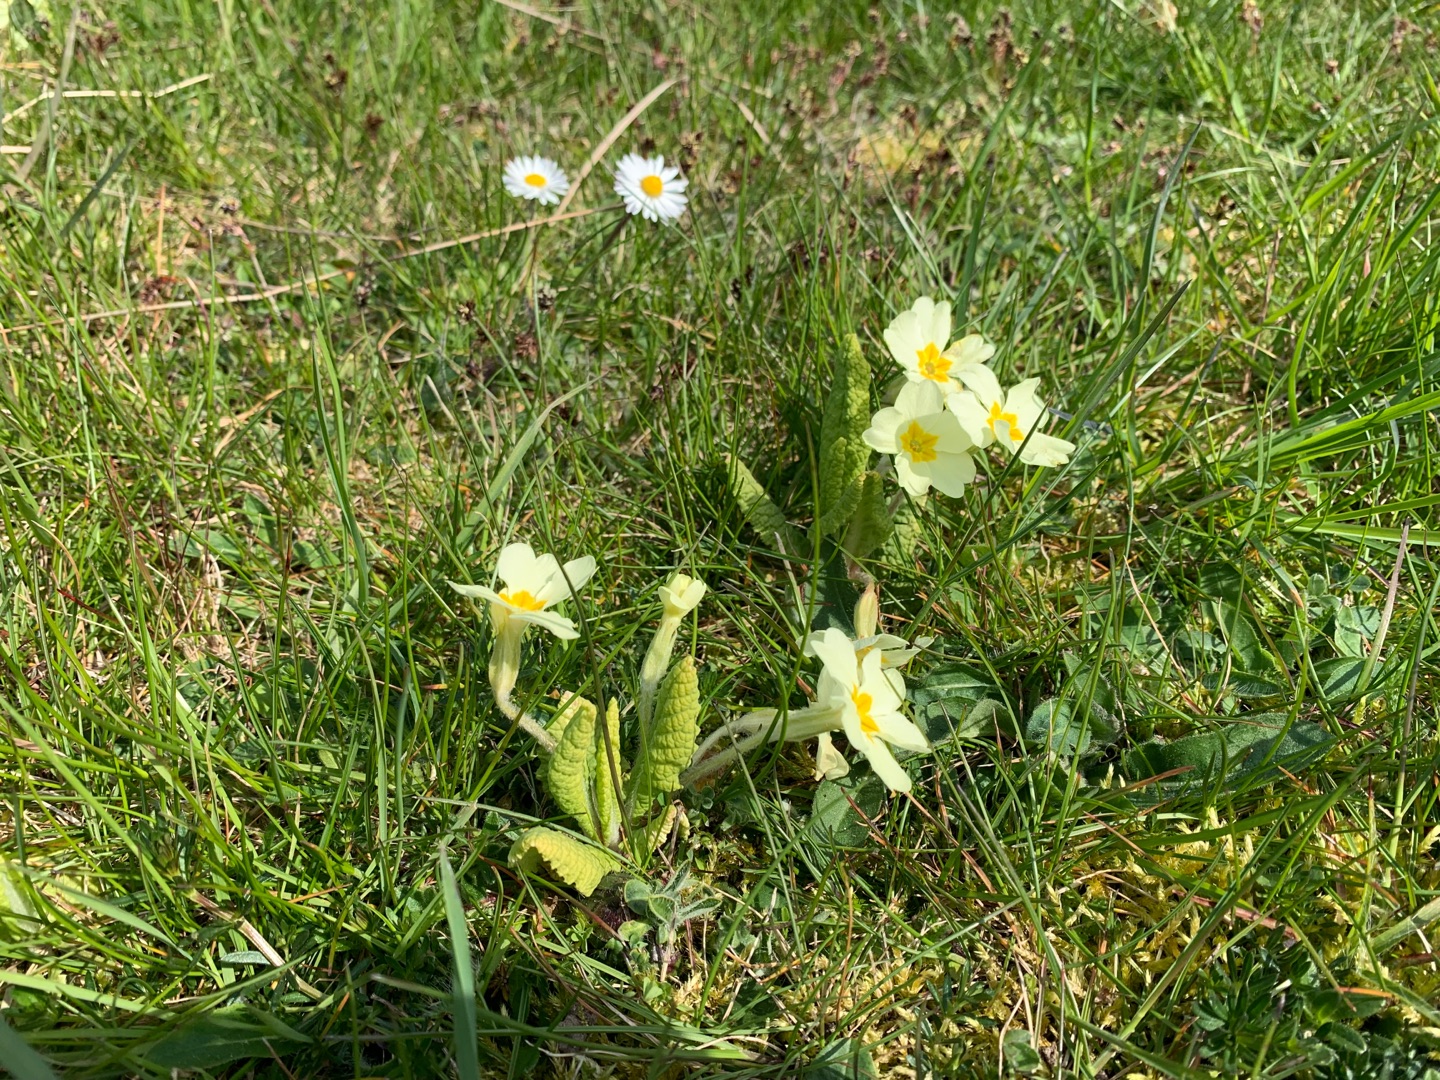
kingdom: Plantae
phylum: Tracheophyta
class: Magnoliopsida
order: Ericales
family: Primulaceae
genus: Primula
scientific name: Primula vulgaris
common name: Storblomstret kodriver
